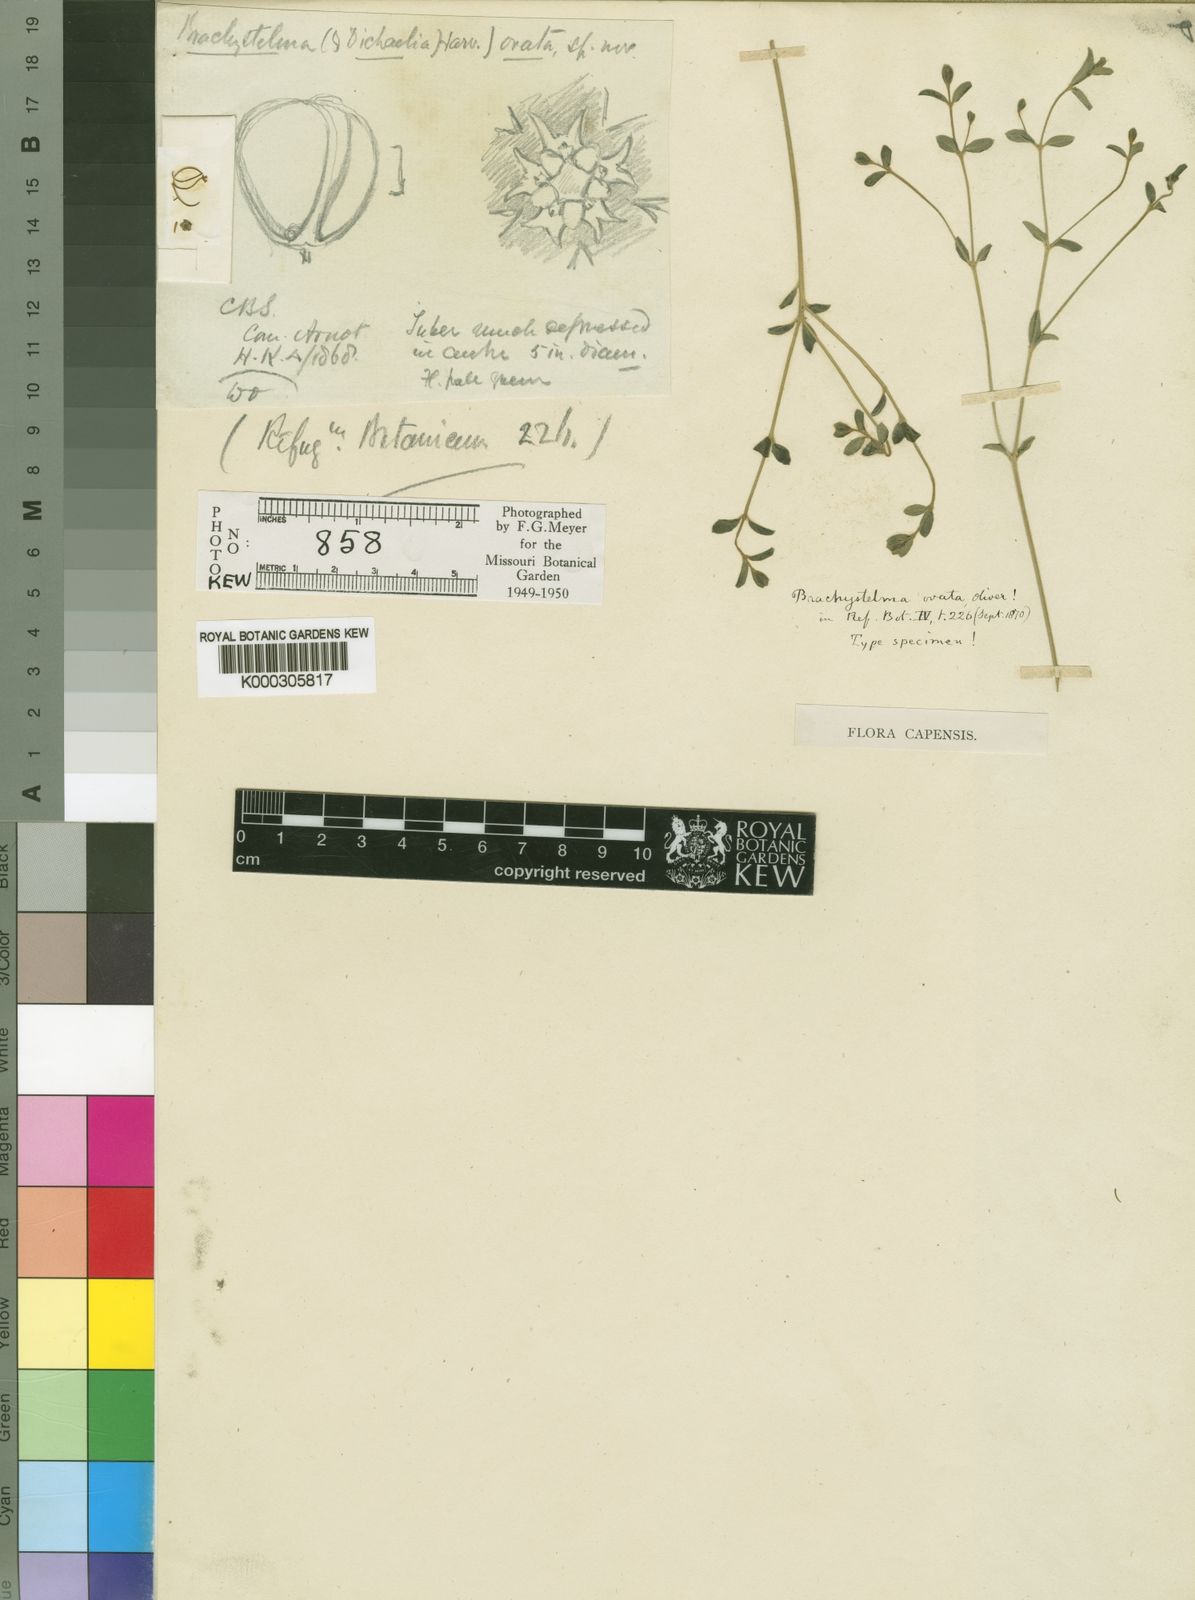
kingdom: Plantae
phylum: Tracheophyta
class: Magnoliopsida
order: Gentianales
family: Apocynaceae
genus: Ceropegia
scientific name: Ceropegia circinata
